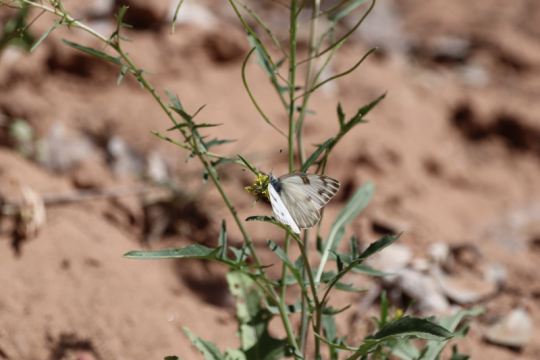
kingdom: Animalia
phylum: Arthropoda
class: Insecta
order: Lepidoptera
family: Pieridae
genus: Pontia
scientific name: Pontia protodice
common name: Checkered White
